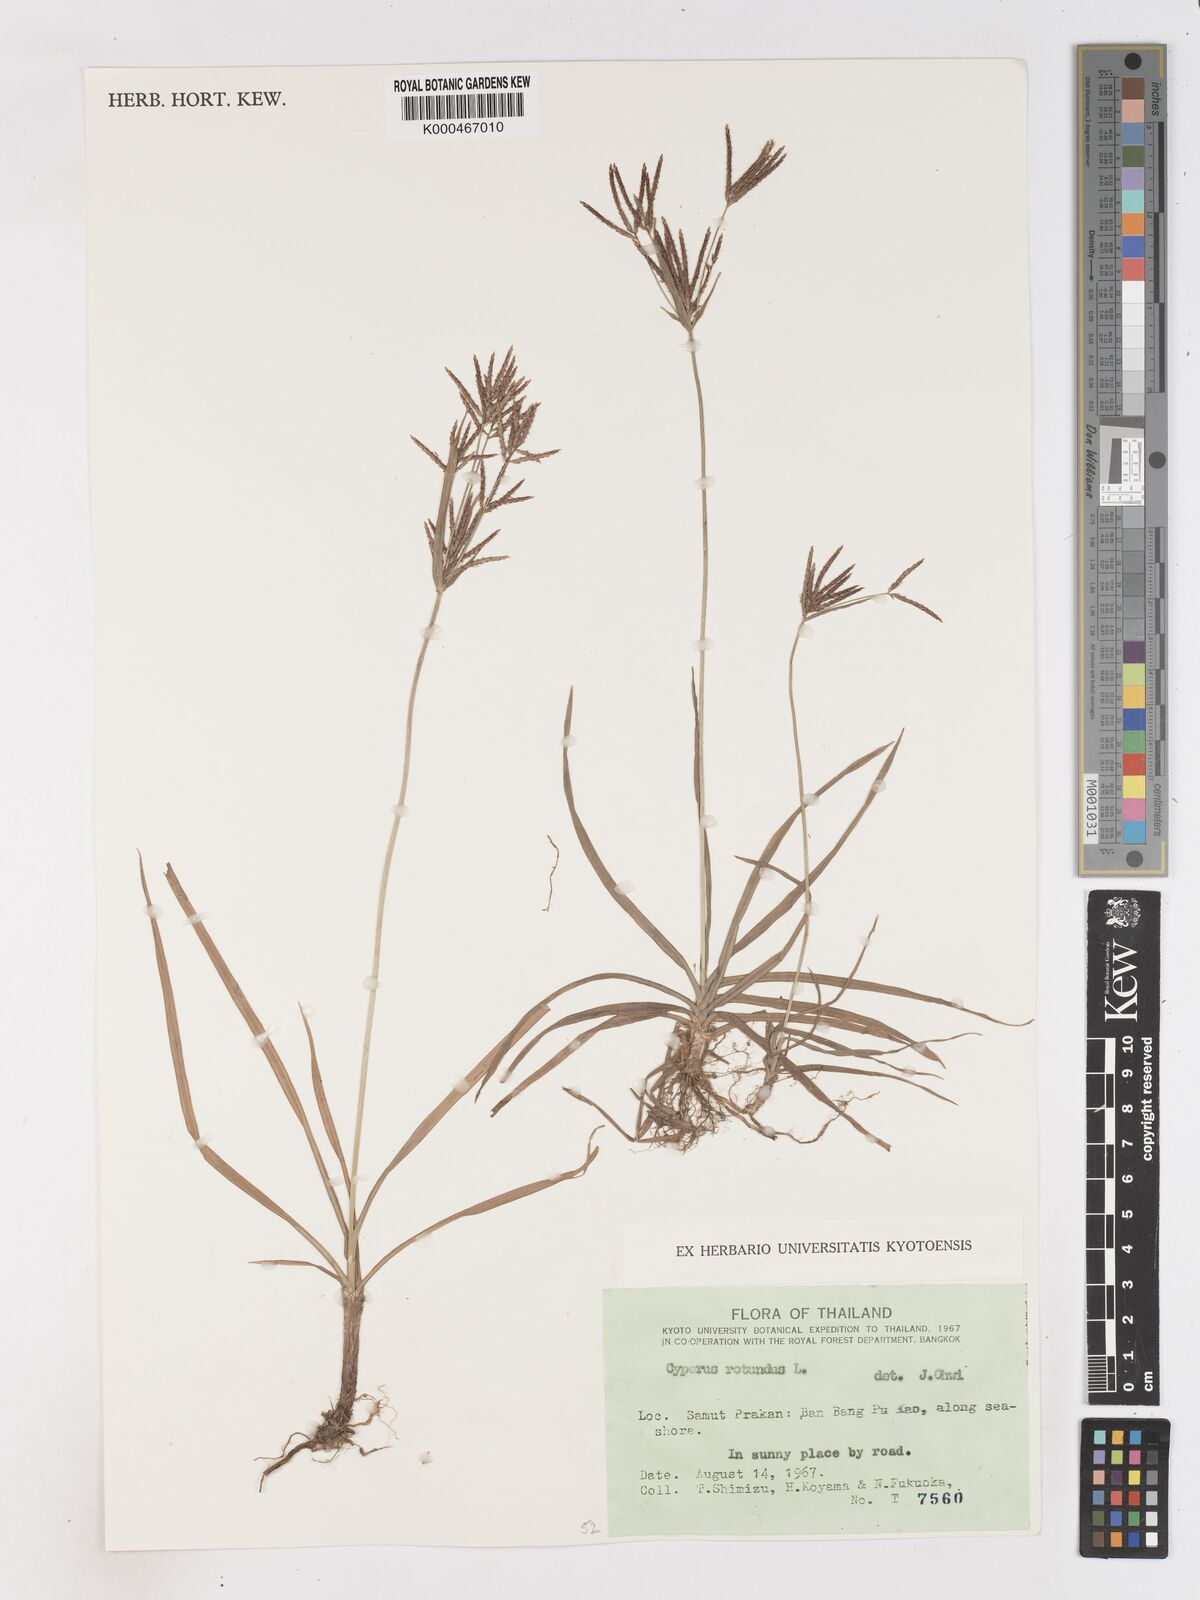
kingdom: Plantae
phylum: Tracheophyta
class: Liliopsida
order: Poales
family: Cyperaceae
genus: Cyperus
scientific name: Cyperus rotundus
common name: Nutgrass
